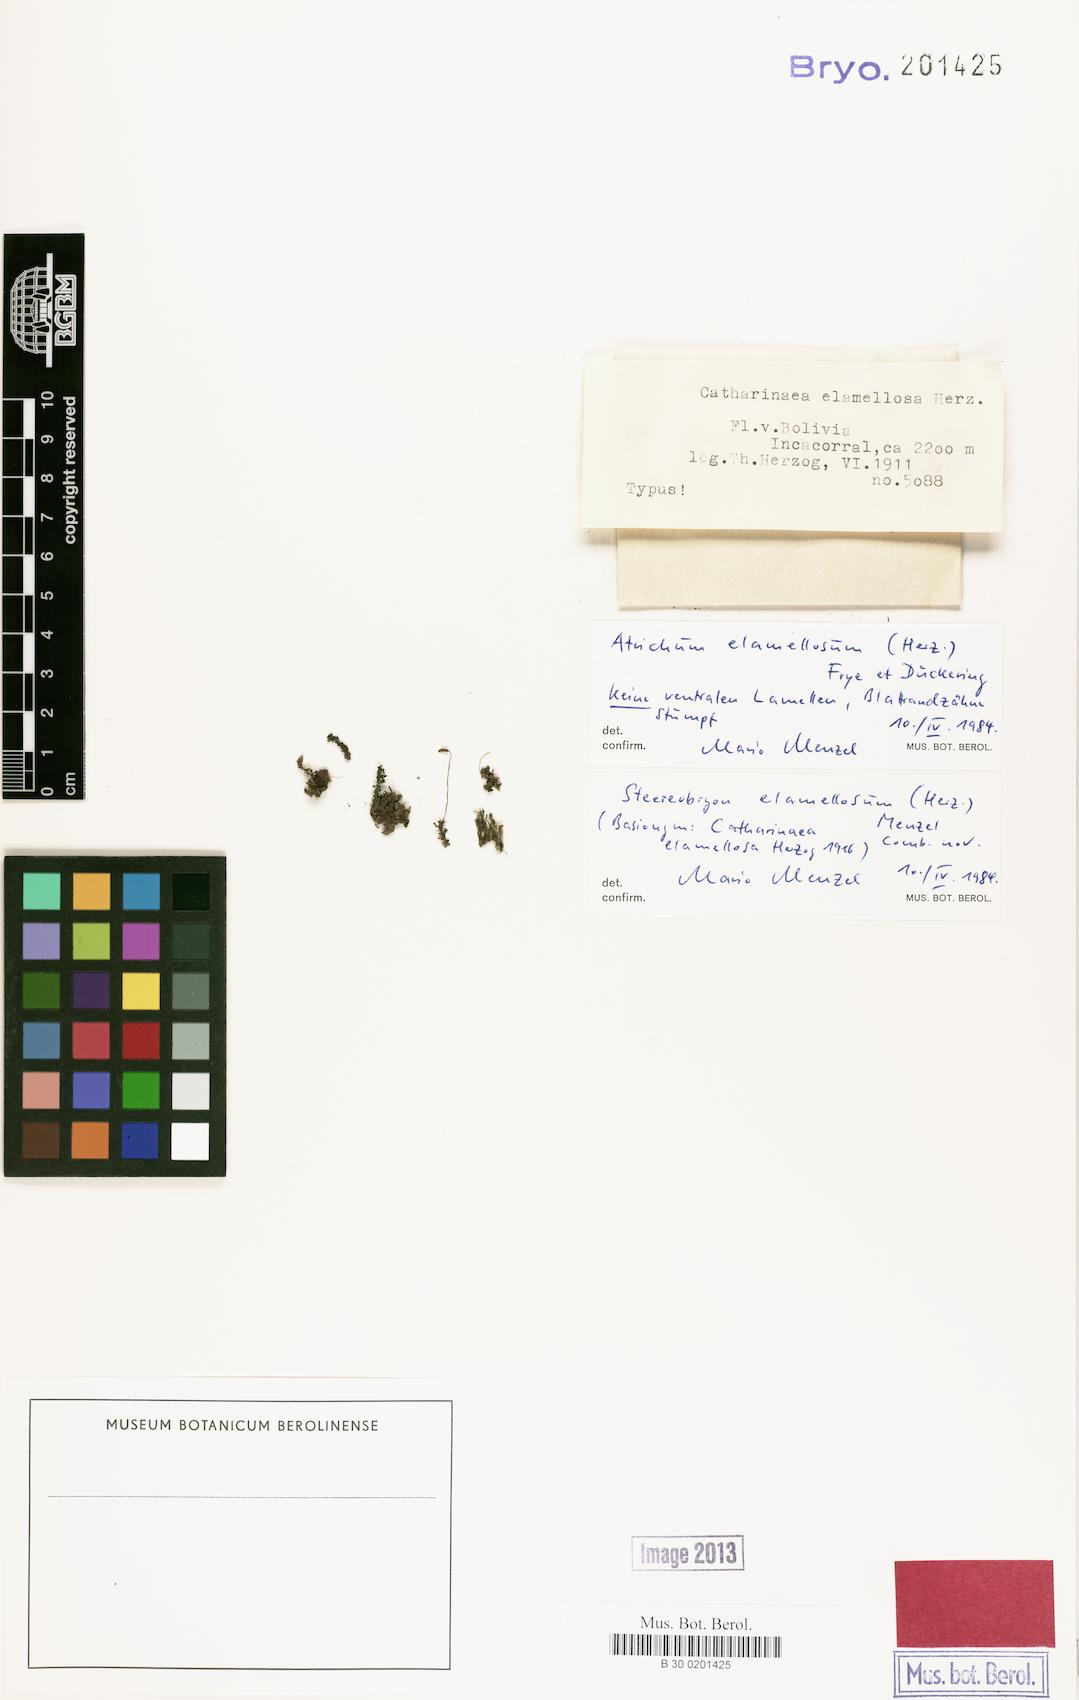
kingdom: Plantae
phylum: Bryophyta
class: Polytrichopsida
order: Polytrichales
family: Polytrichaceae
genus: Steereobryon
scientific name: Steereobryon subulirostrum
